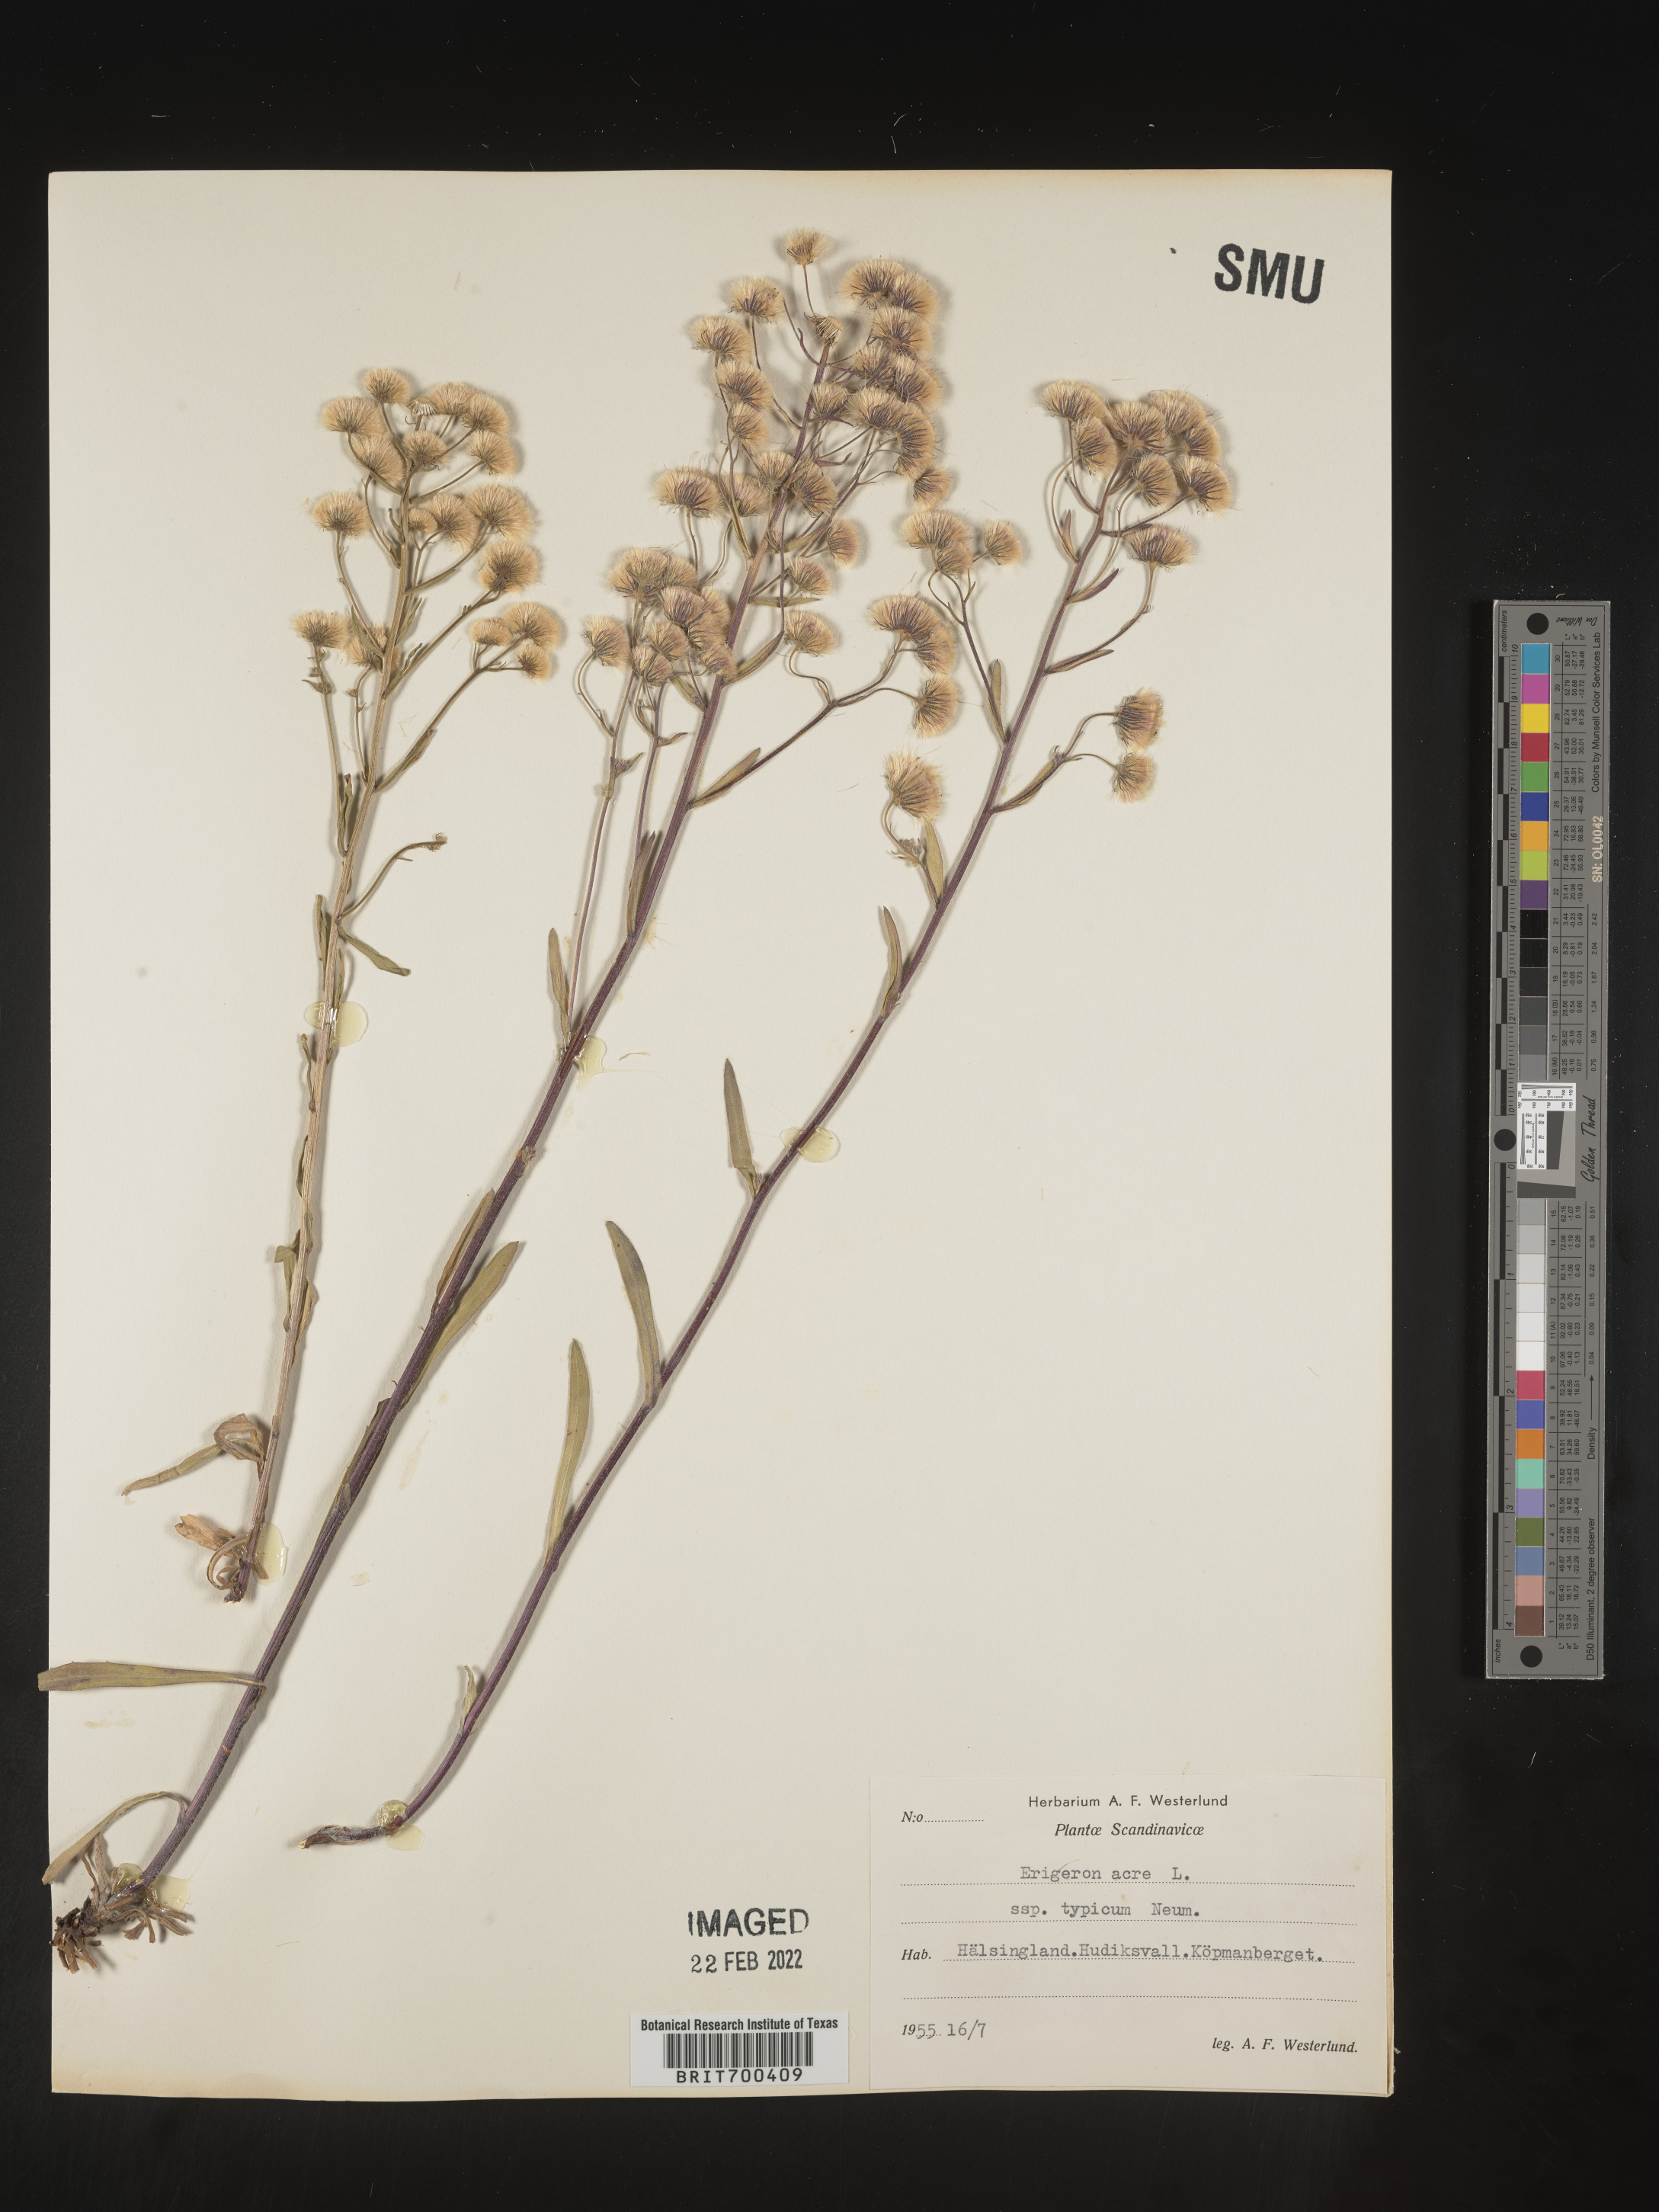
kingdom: Plantae
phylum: Tracheophyta
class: Magnoliopsida
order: Asterales
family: Asteraceae
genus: Erigeron
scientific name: Erigeron
